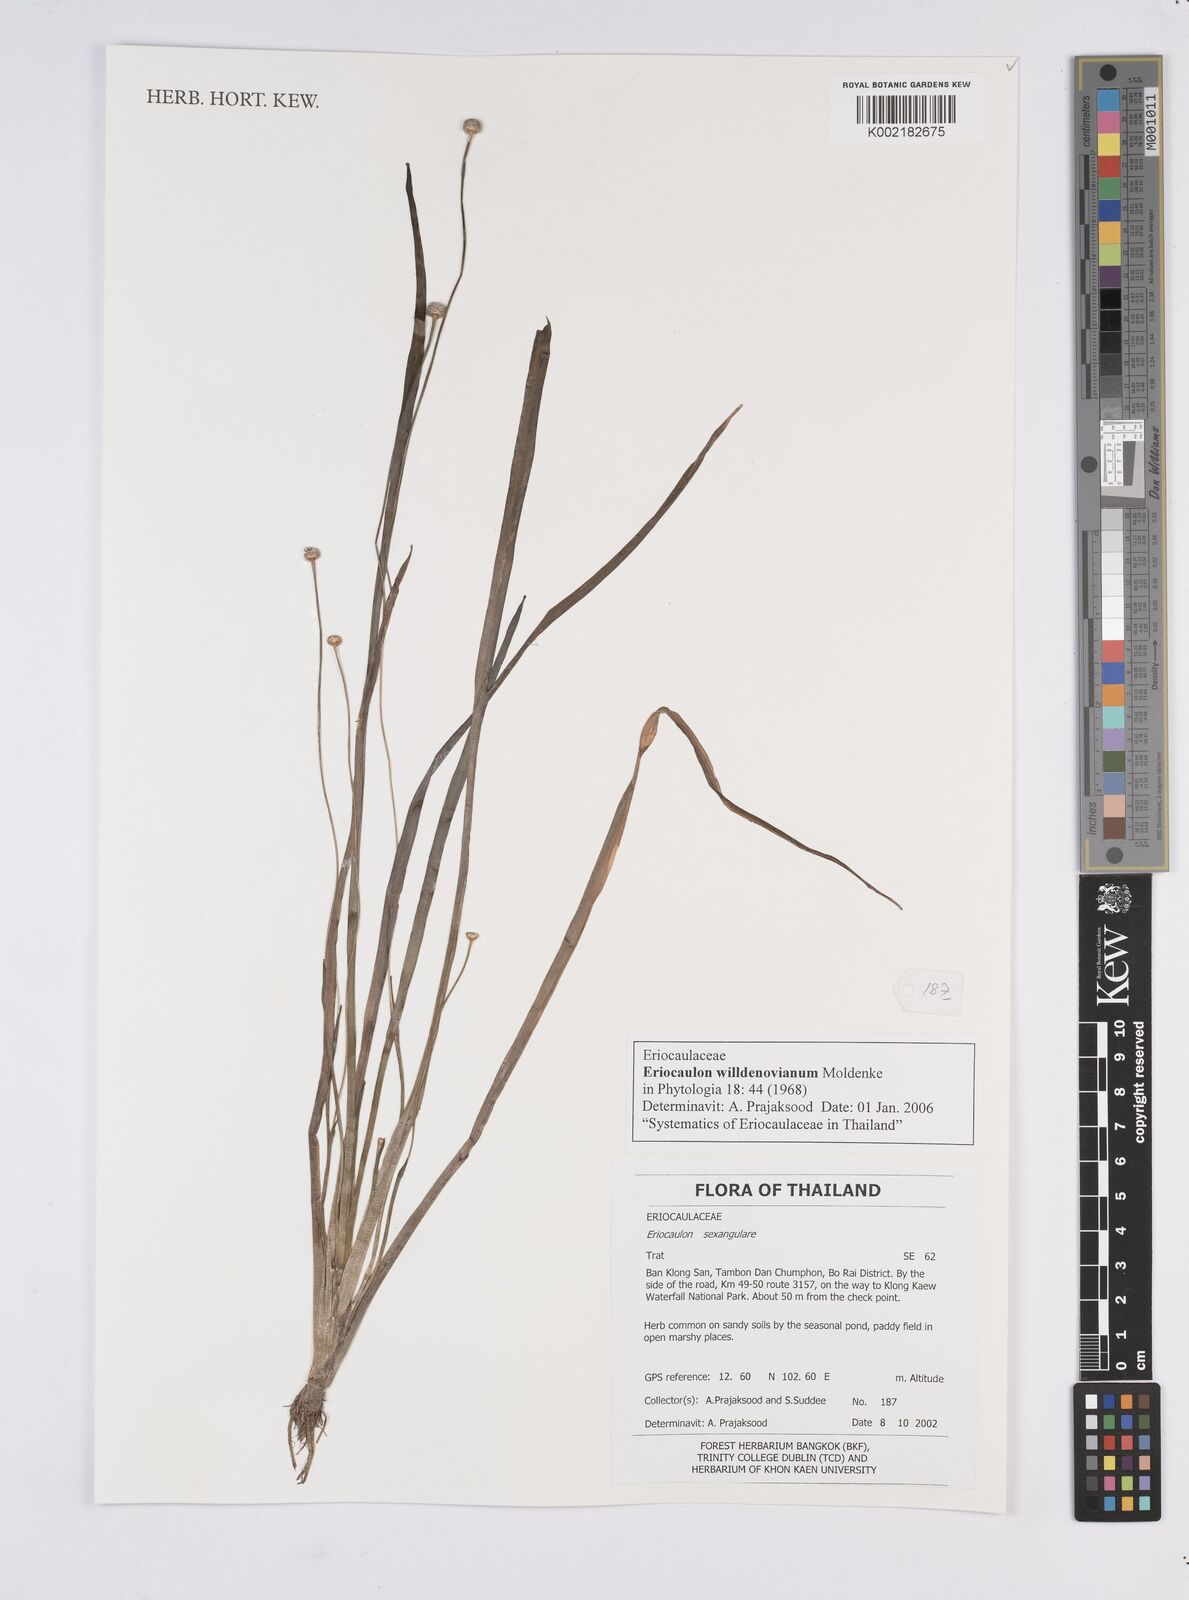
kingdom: Plantae
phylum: Tracheophyta
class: Liliopsida
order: Poales
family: Eriocaulaceae
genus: Eriocaulon
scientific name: Eriocaulon willdenovianum
